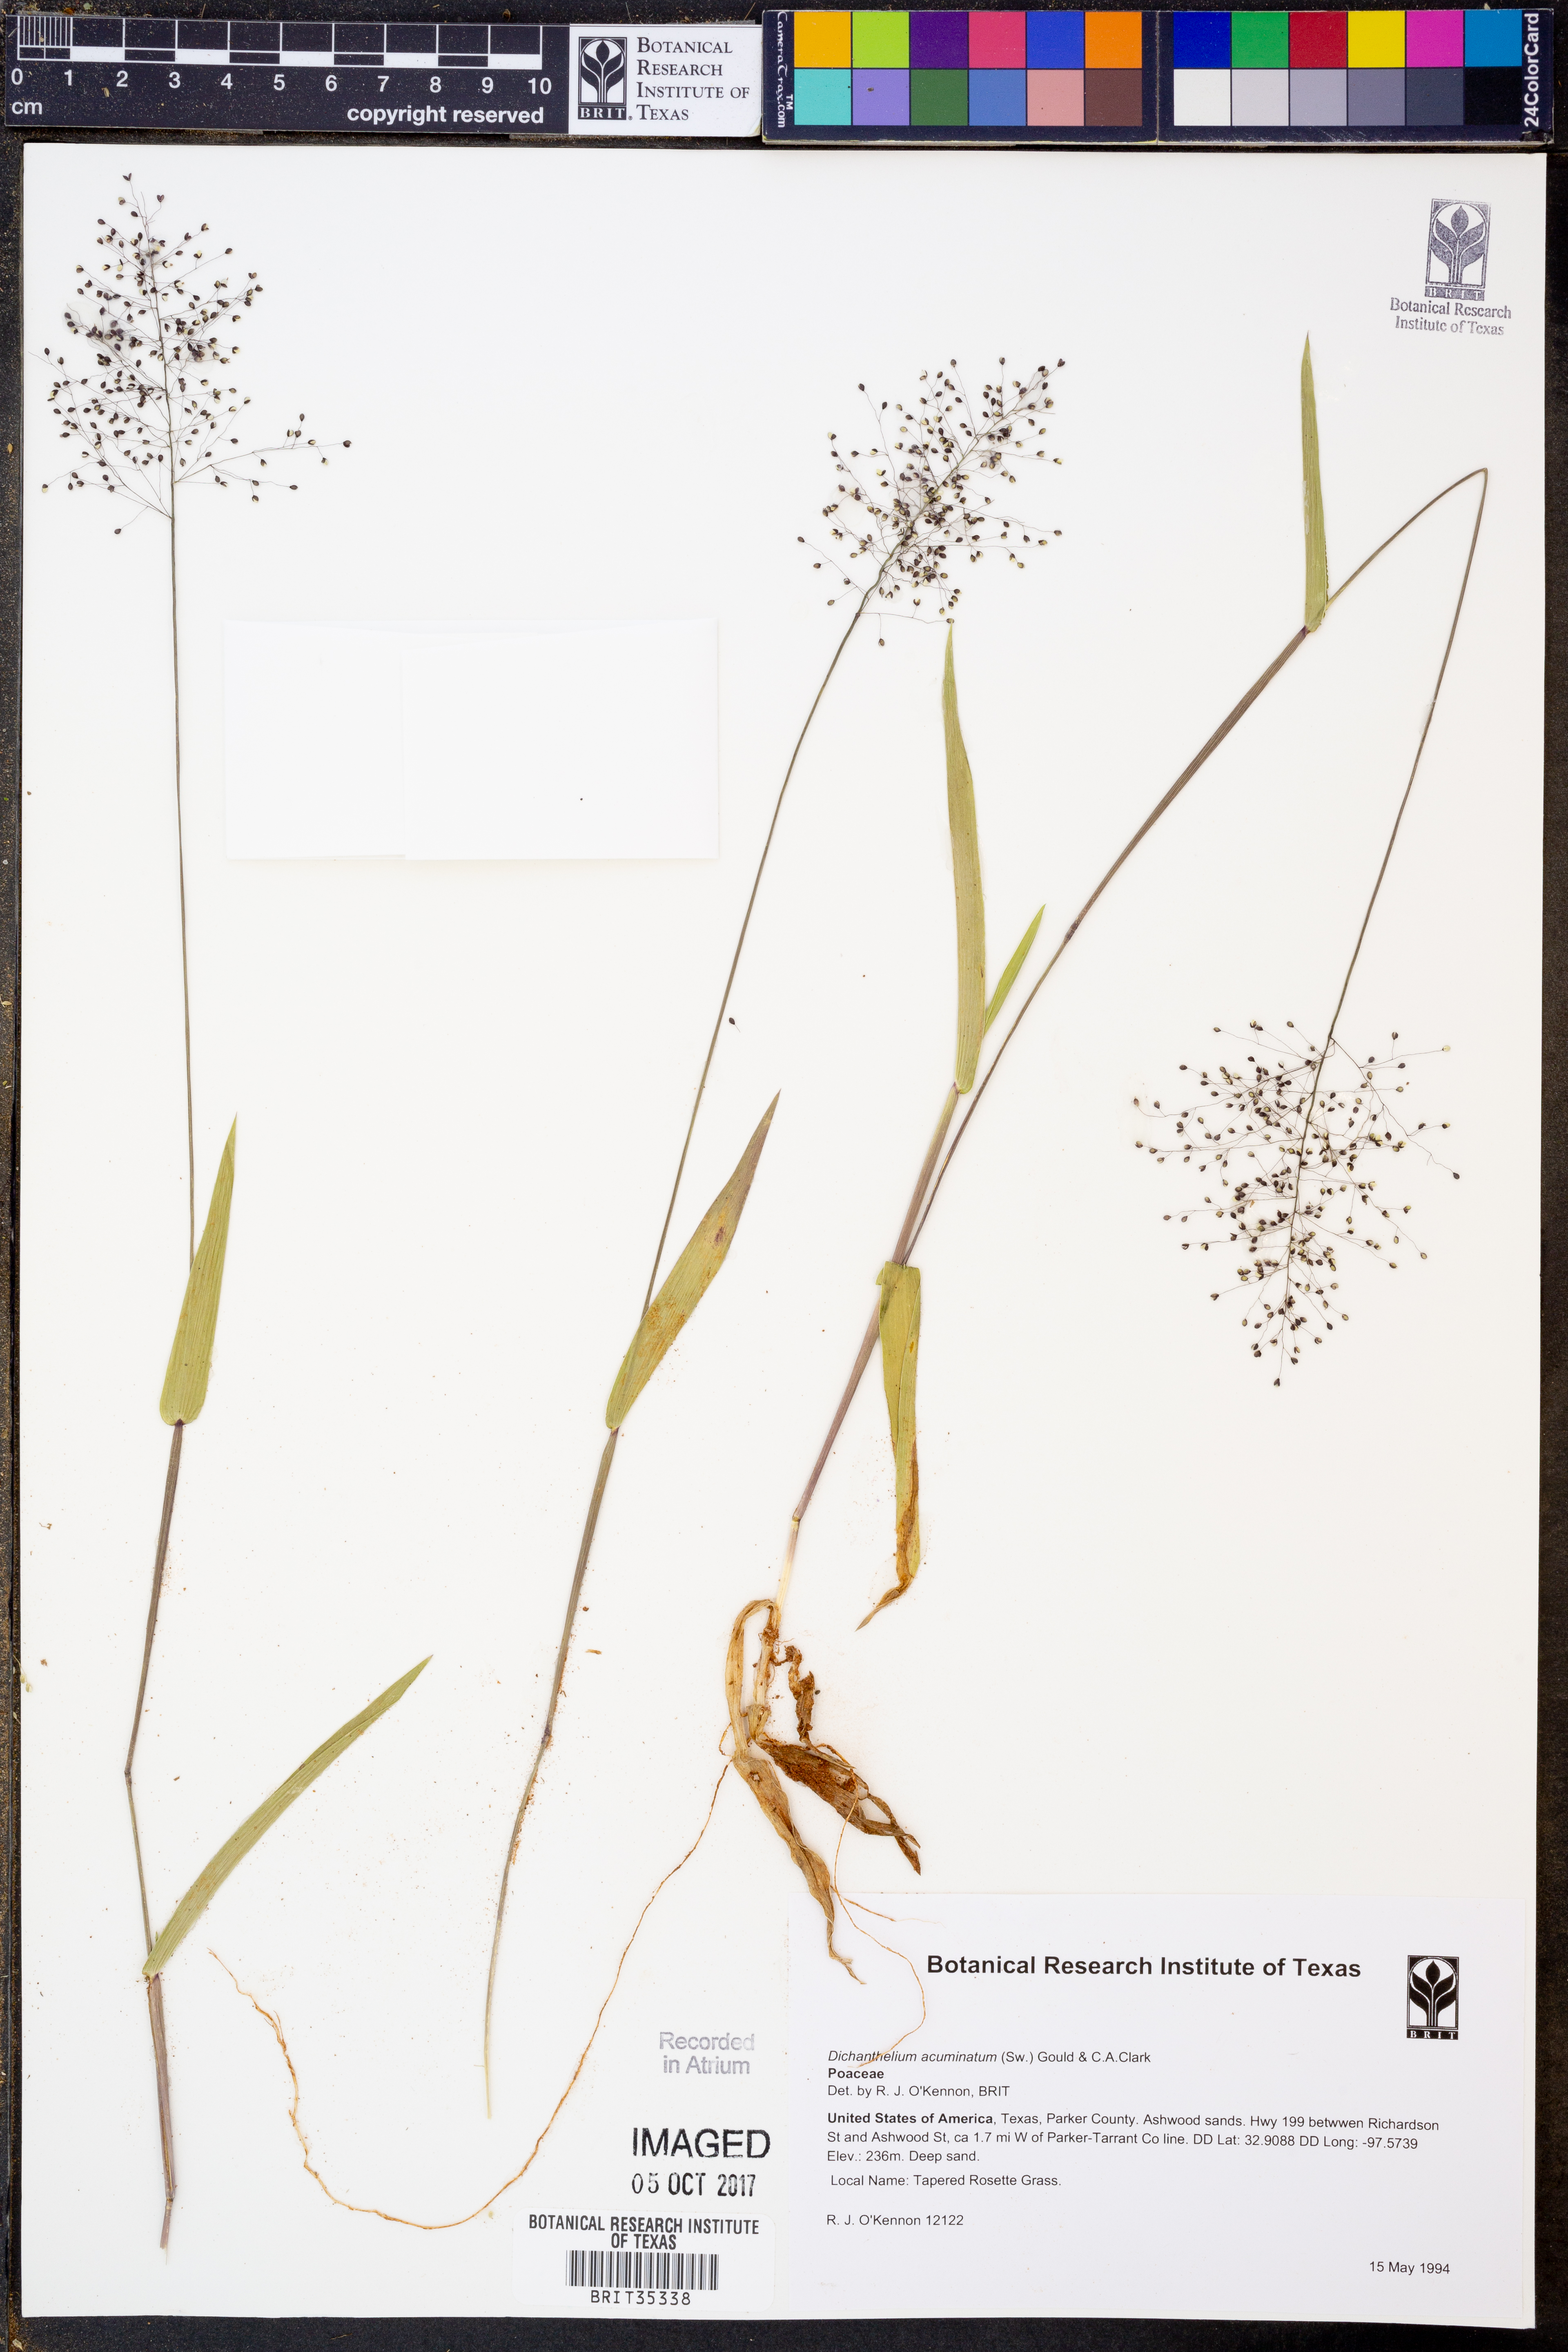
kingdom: Plantae
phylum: Tracheophyta
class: Liliopsida
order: Poales
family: Poaceae
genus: Dichanthelium
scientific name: Dichanthelium acuminatum
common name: Hairy panic grass
